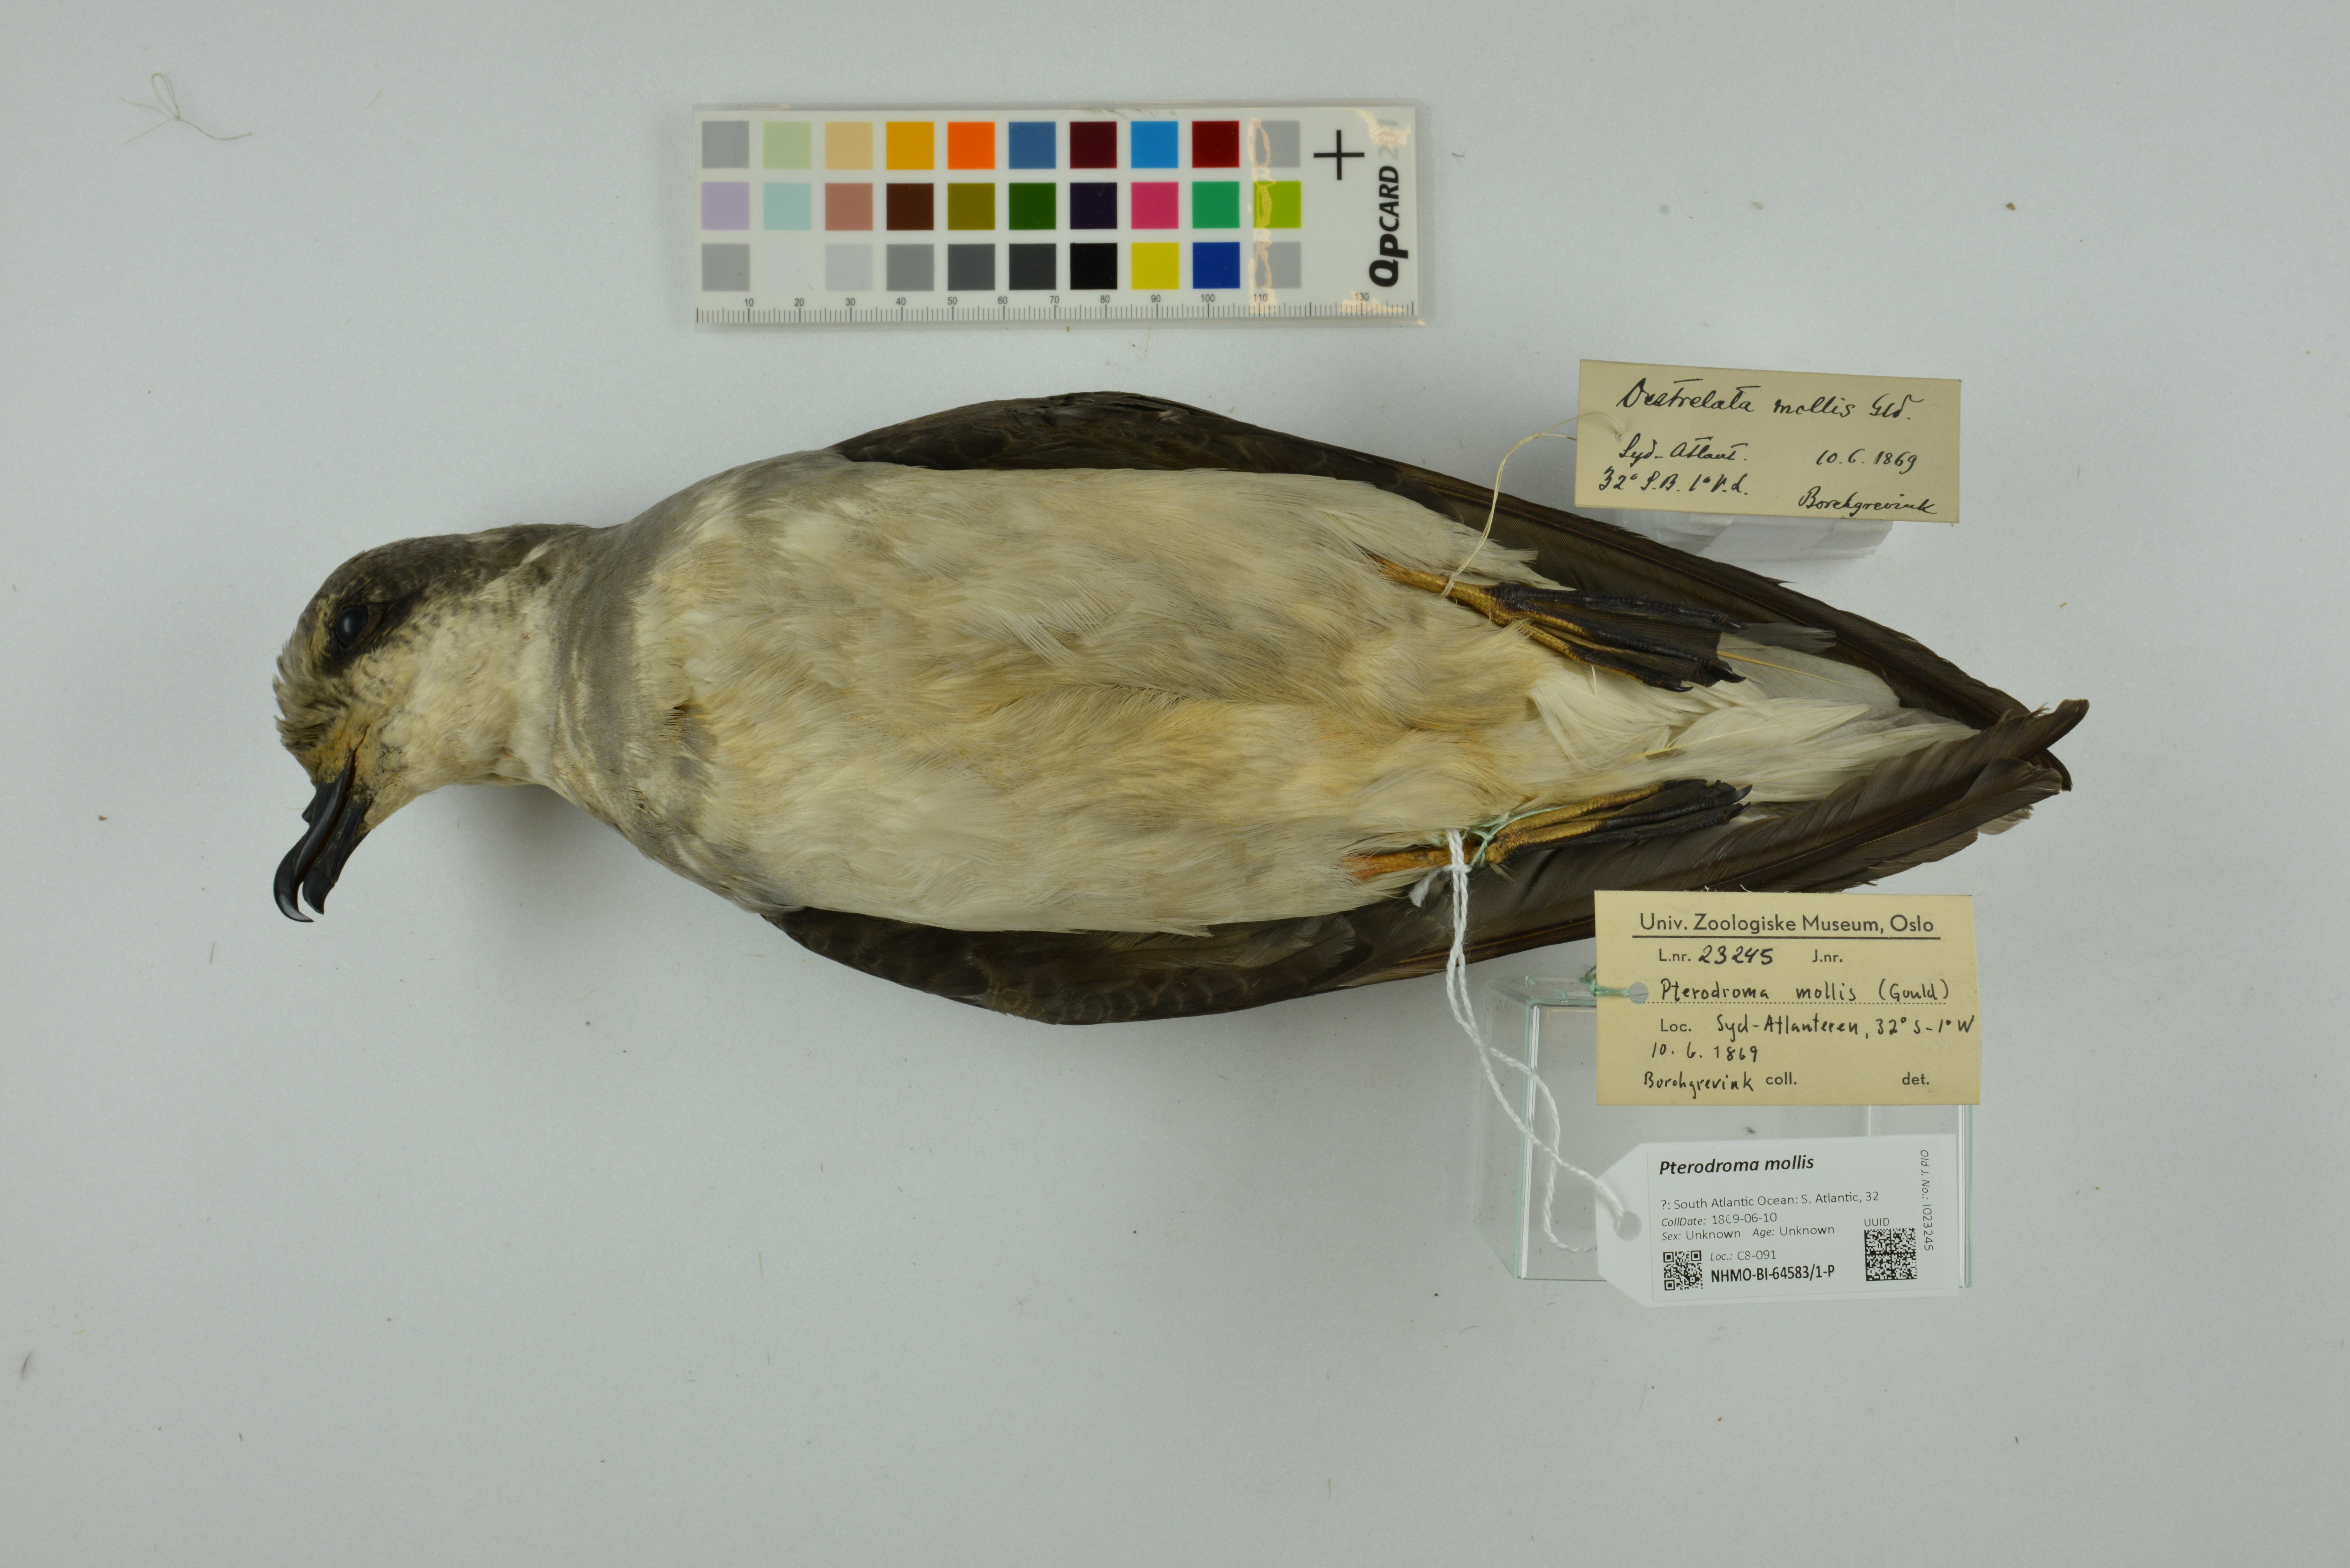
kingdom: Animalia
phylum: Chordata
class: Aves
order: Procellariiformes
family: Procellariidae
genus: Pterodroma
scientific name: Pterodroma mollis
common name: Soft-plumaged petrel
